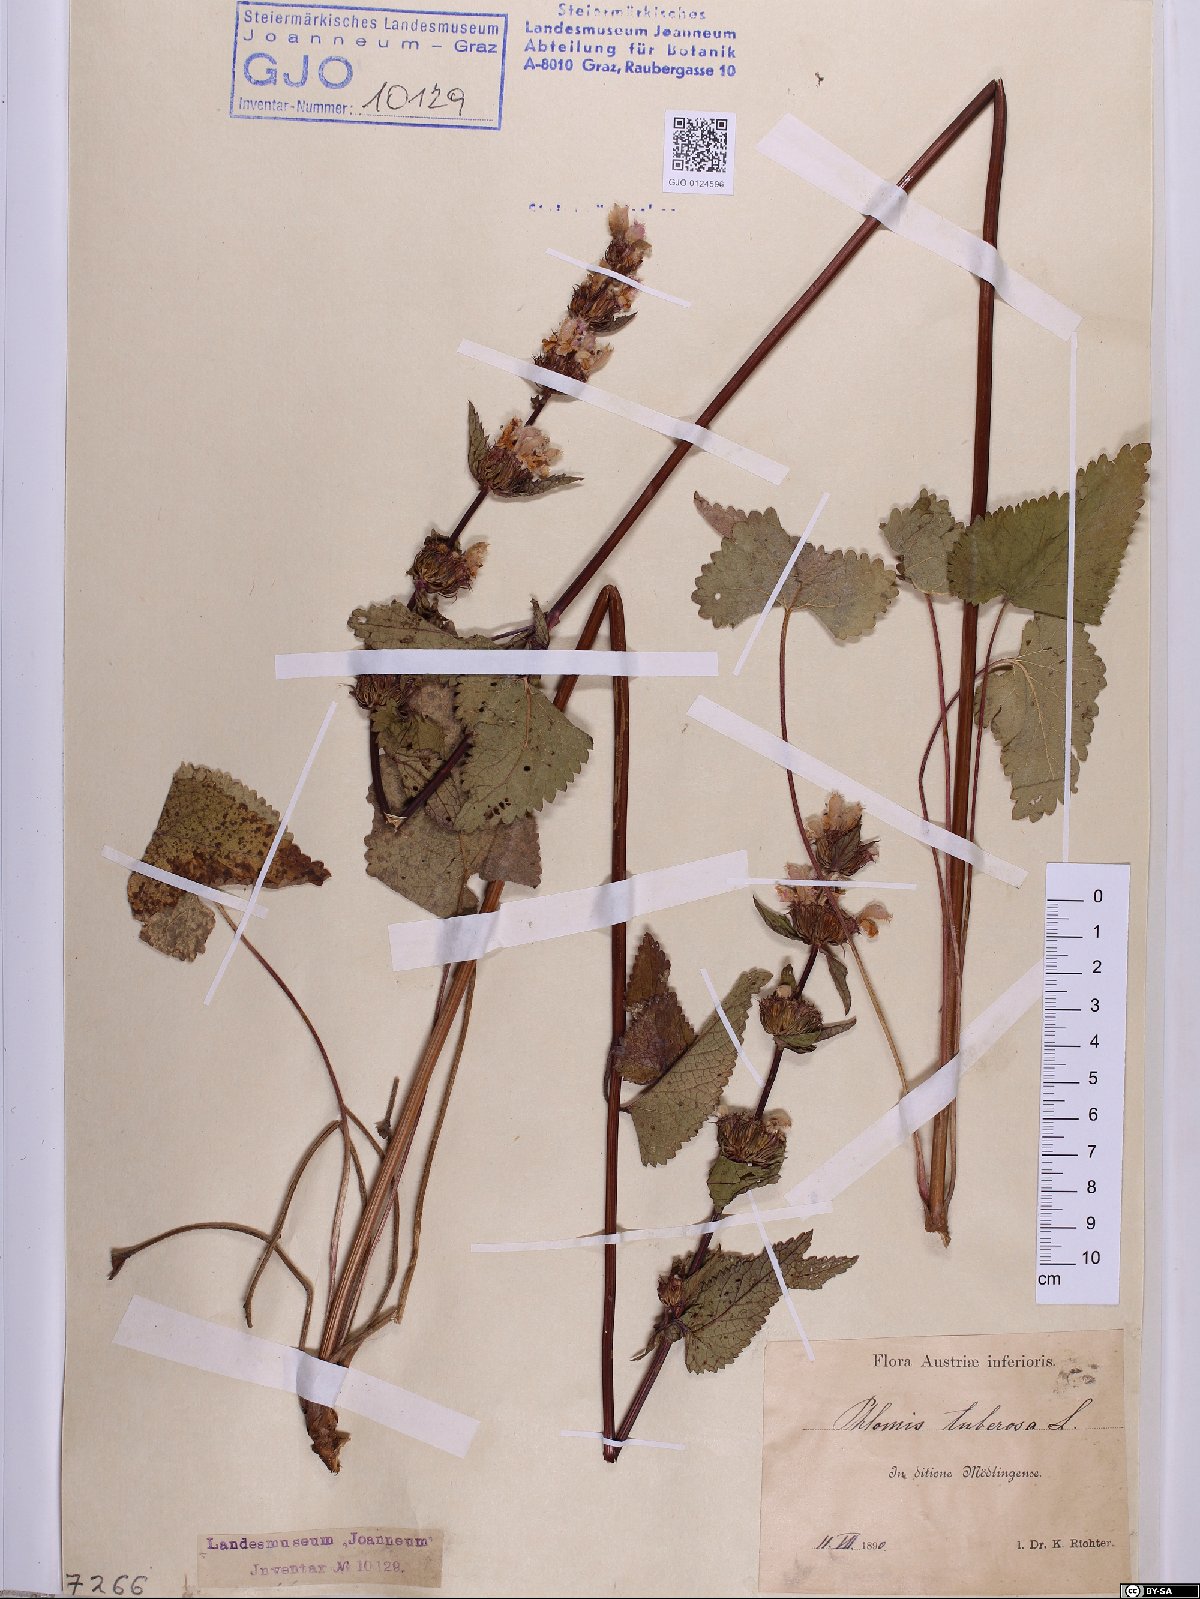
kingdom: Plantae
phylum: Tracheophyta
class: Magnoliopsida
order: Lamiales
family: Lamiaceae
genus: Phlomoides
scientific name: Phlomoides tuberosa
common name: Tuberous jerusalem sage
